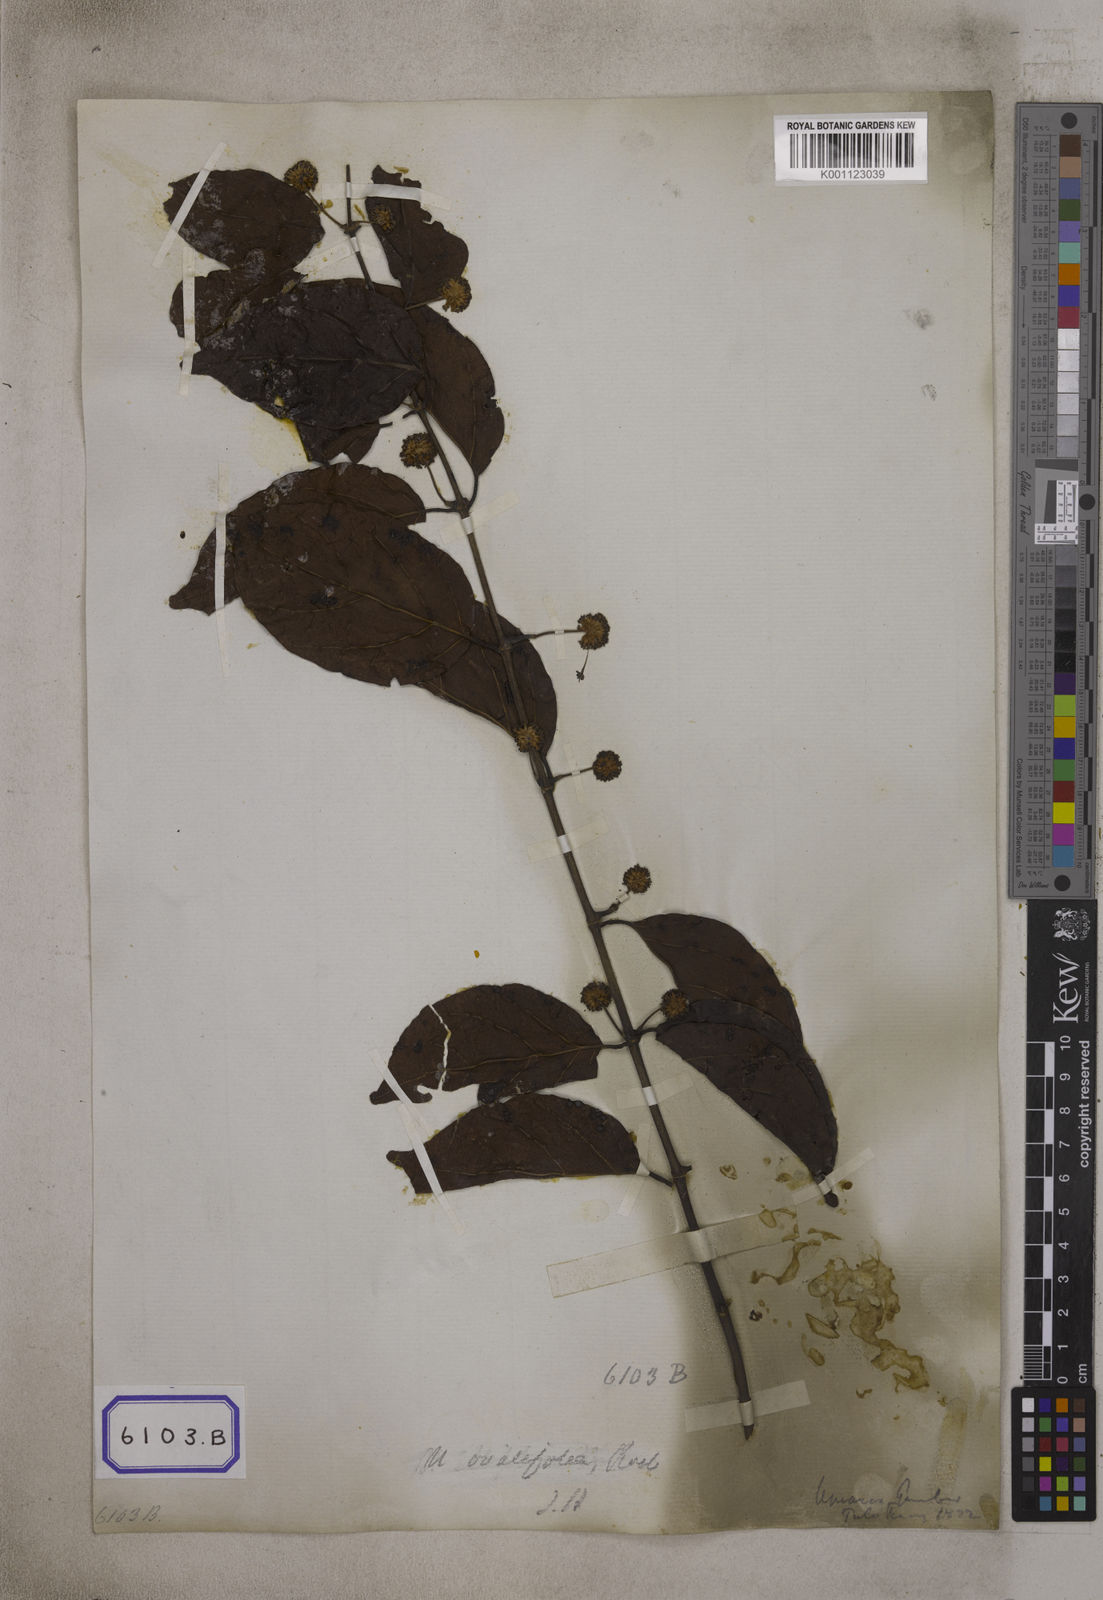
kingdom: Plantae
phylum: Tracheophyta
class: Magnoliopsida
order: Gentianales
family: Rubiaceae
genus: Uncaria
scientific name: Uncaria gambir
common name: Pale catechu
